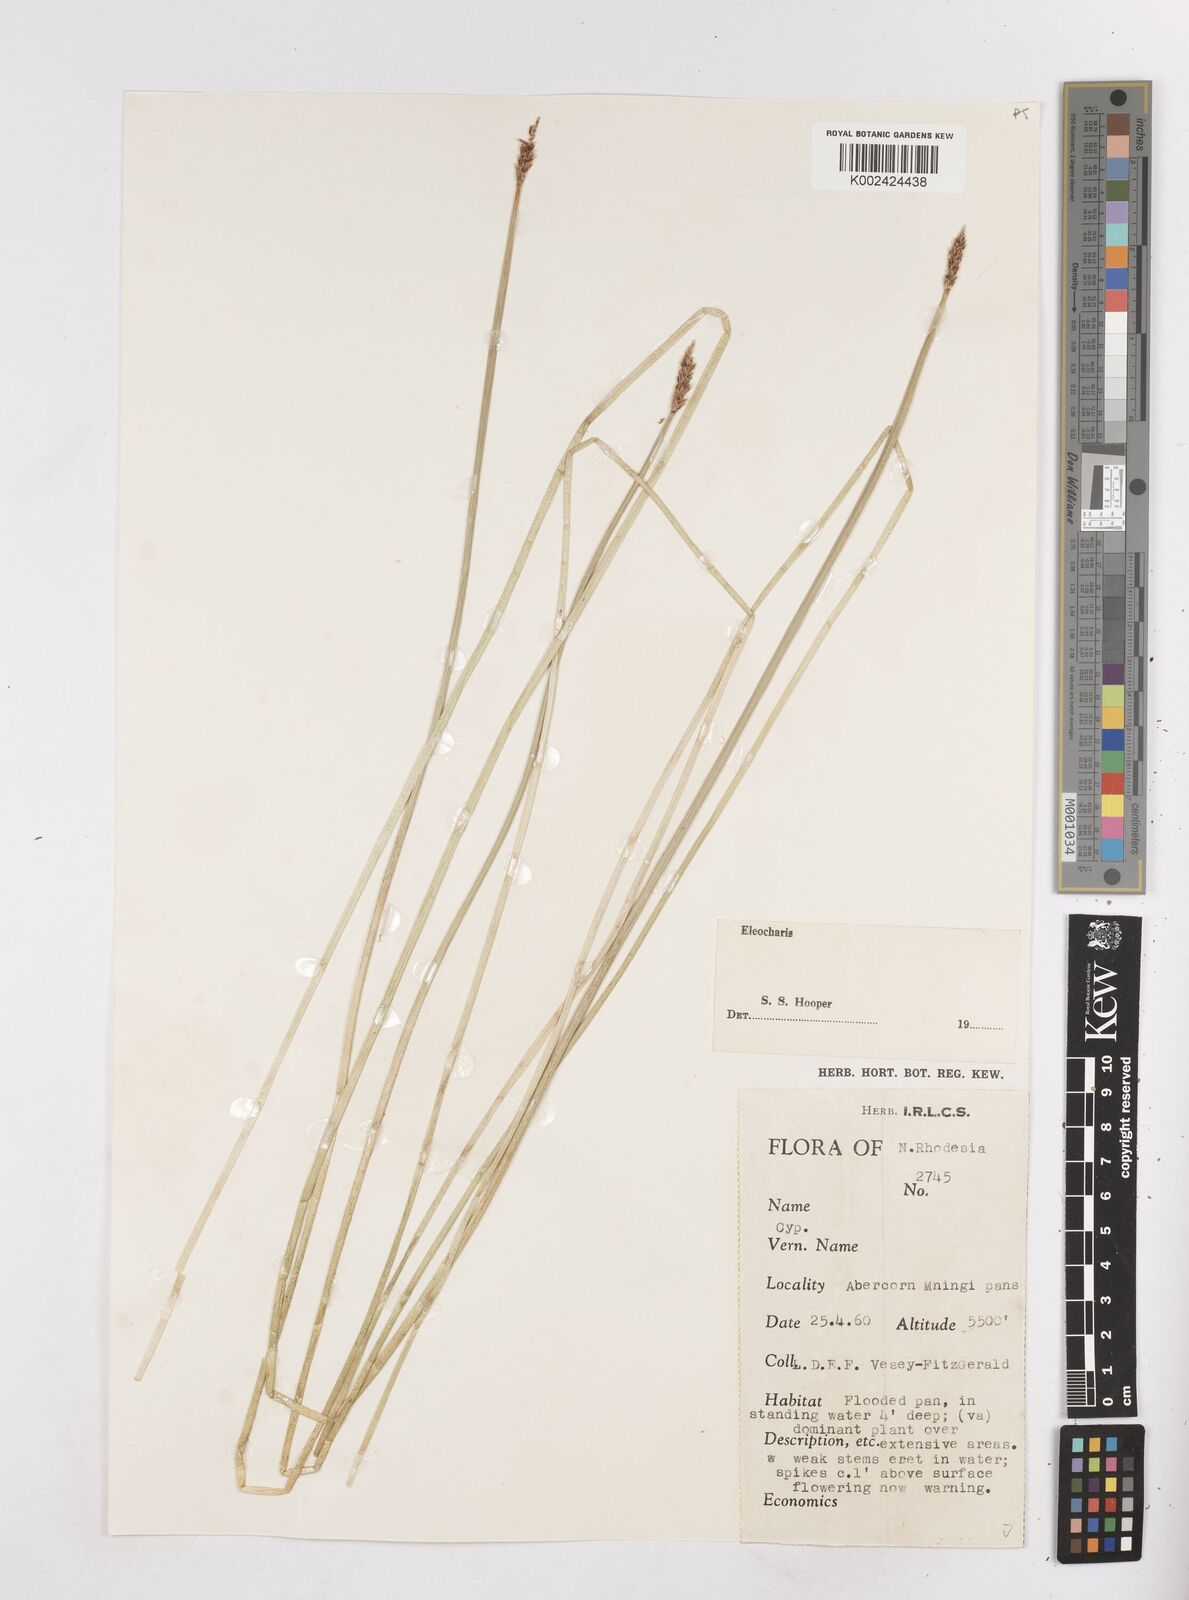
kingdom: Plantae
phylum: Tracheophyta
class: Liliopsida
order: Poales
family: Cyperaceae
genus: Eleocharis
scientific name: Eleocharis
